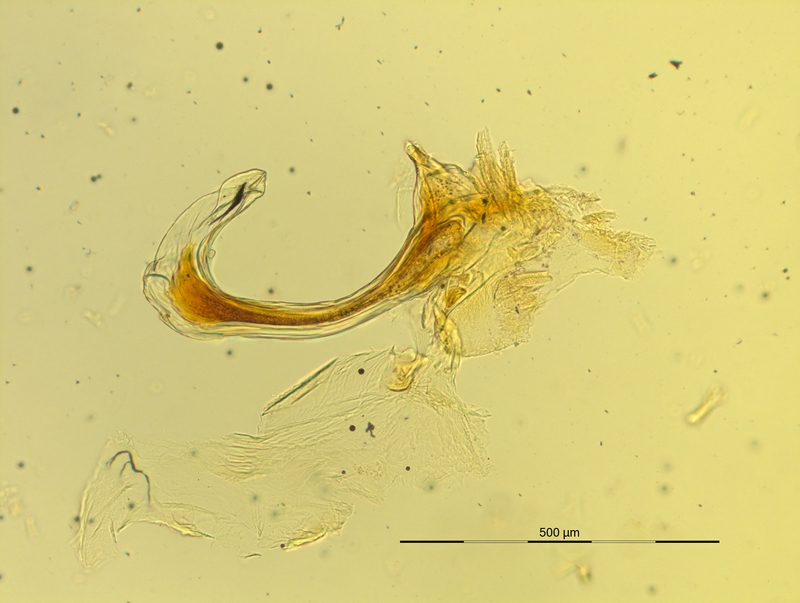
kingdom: Animalia
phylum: Arthropoda
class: Diplopoda
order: Chordeumatida
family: Craspedosomatidae
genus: Pyrgocyphosoma
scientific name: Pyrgocyphosoma ormeanum
